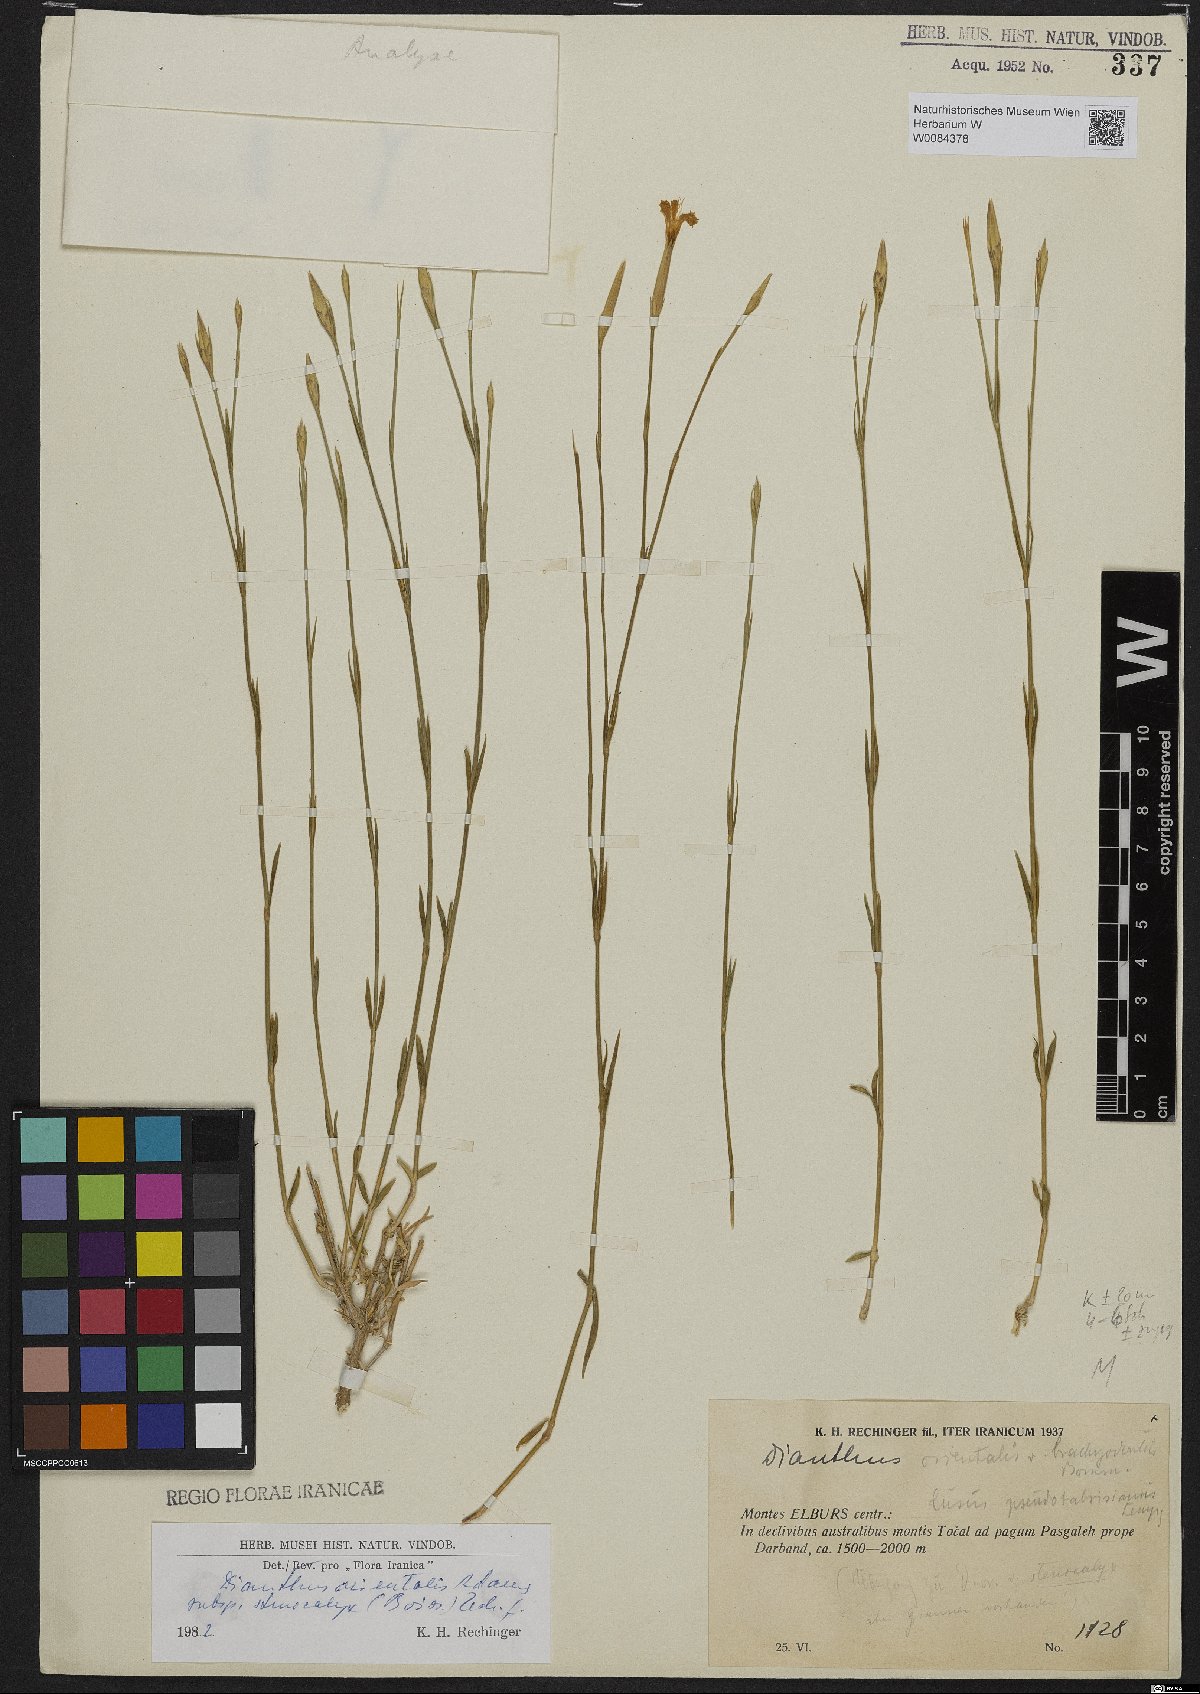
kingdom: Plantae
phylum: Tracheophyta
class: Magnoliopsida
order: Caryophyllales
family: Caryophyllaceae
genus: Dianthus
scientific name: Dianthus orientalis
